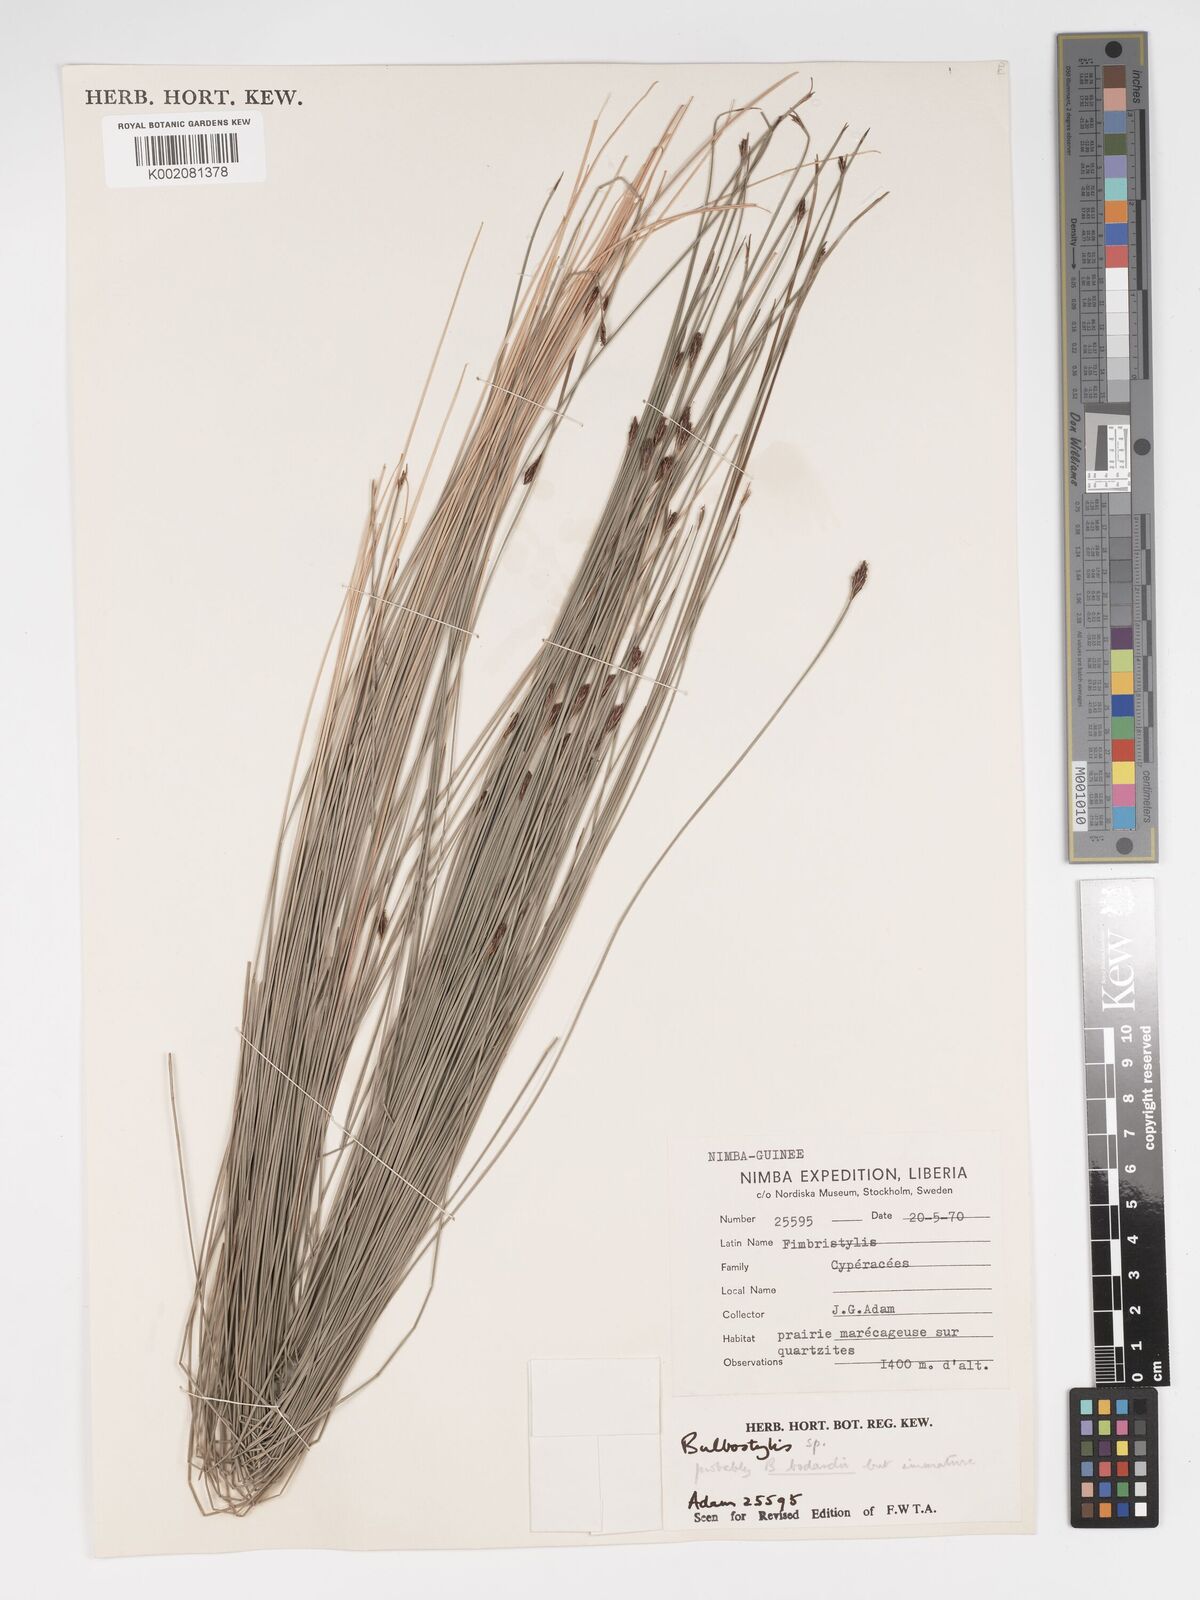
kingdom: Plantae
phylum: Tracheophyta
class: Liliopsida
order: Poales
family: Cyperaceae
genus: Bulbostylis
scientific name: Bulbostylis
